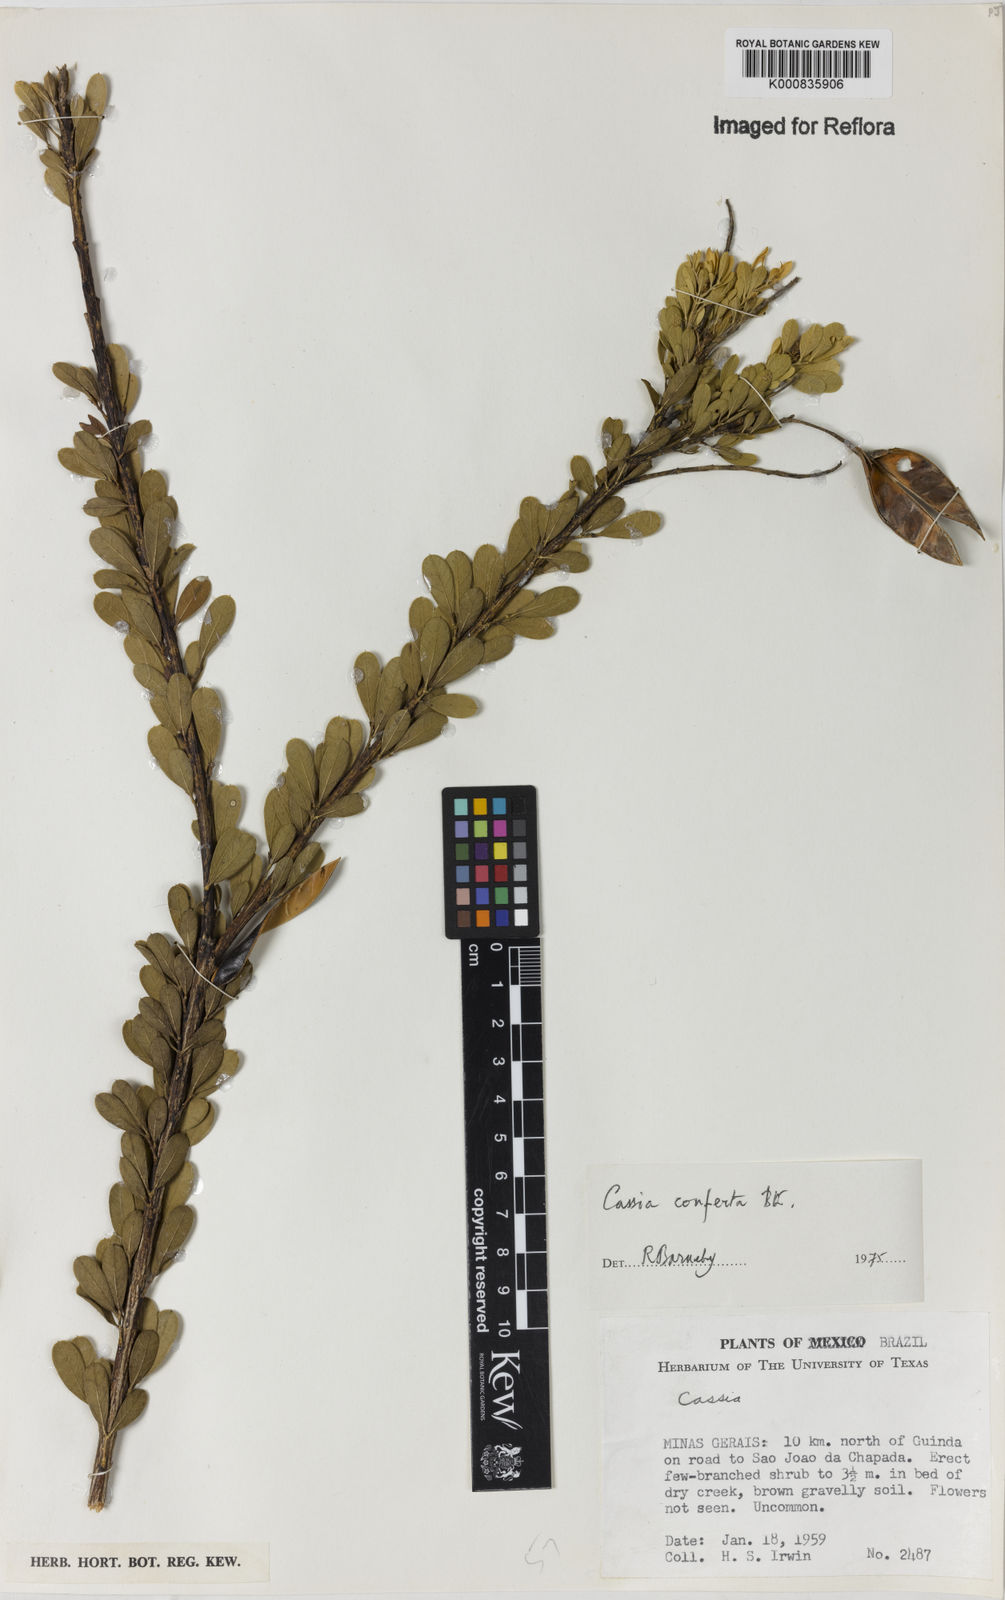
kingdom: Plantae
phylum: Tracheophyta
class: Magnoliopsida
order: Fabales
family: Fabaceae
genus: Chamaecrista
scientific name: Chamaecrista conferta
